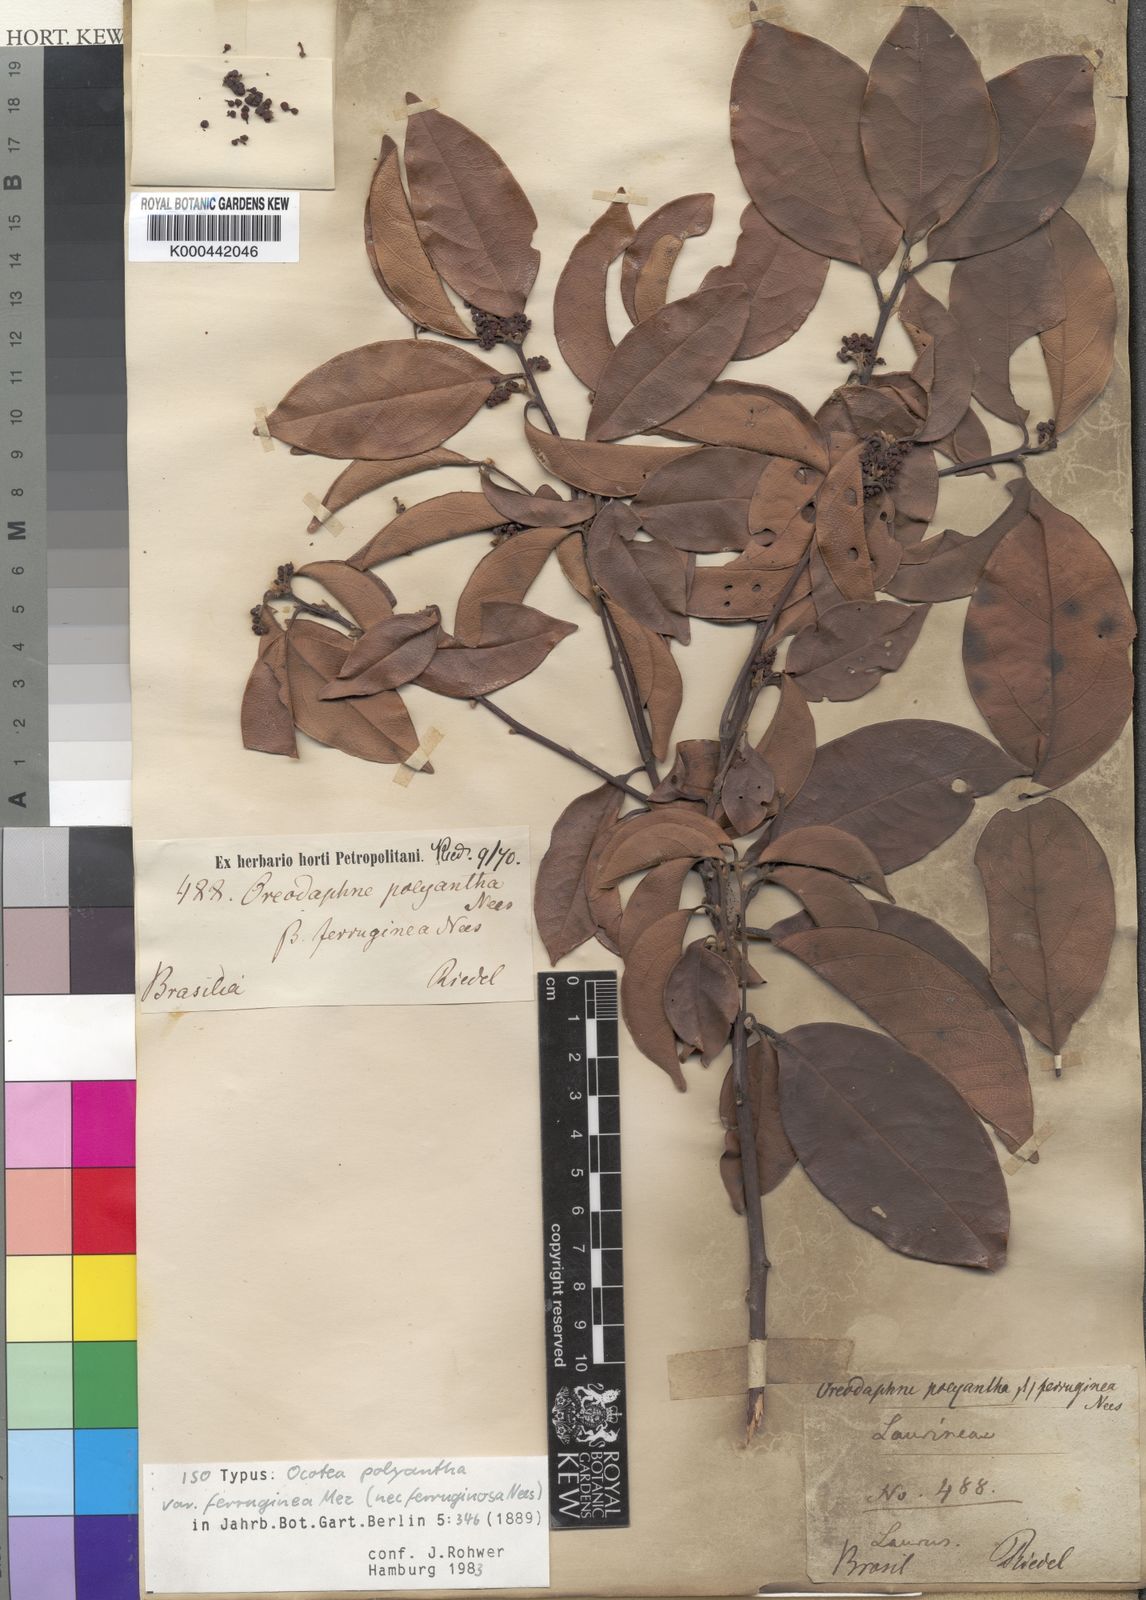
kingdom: Plantae
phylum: Tracheophyta
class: Magnoliopsida
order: Laurales
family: Lauraceae
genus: Ocotea
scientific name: Ocotea polyantha
